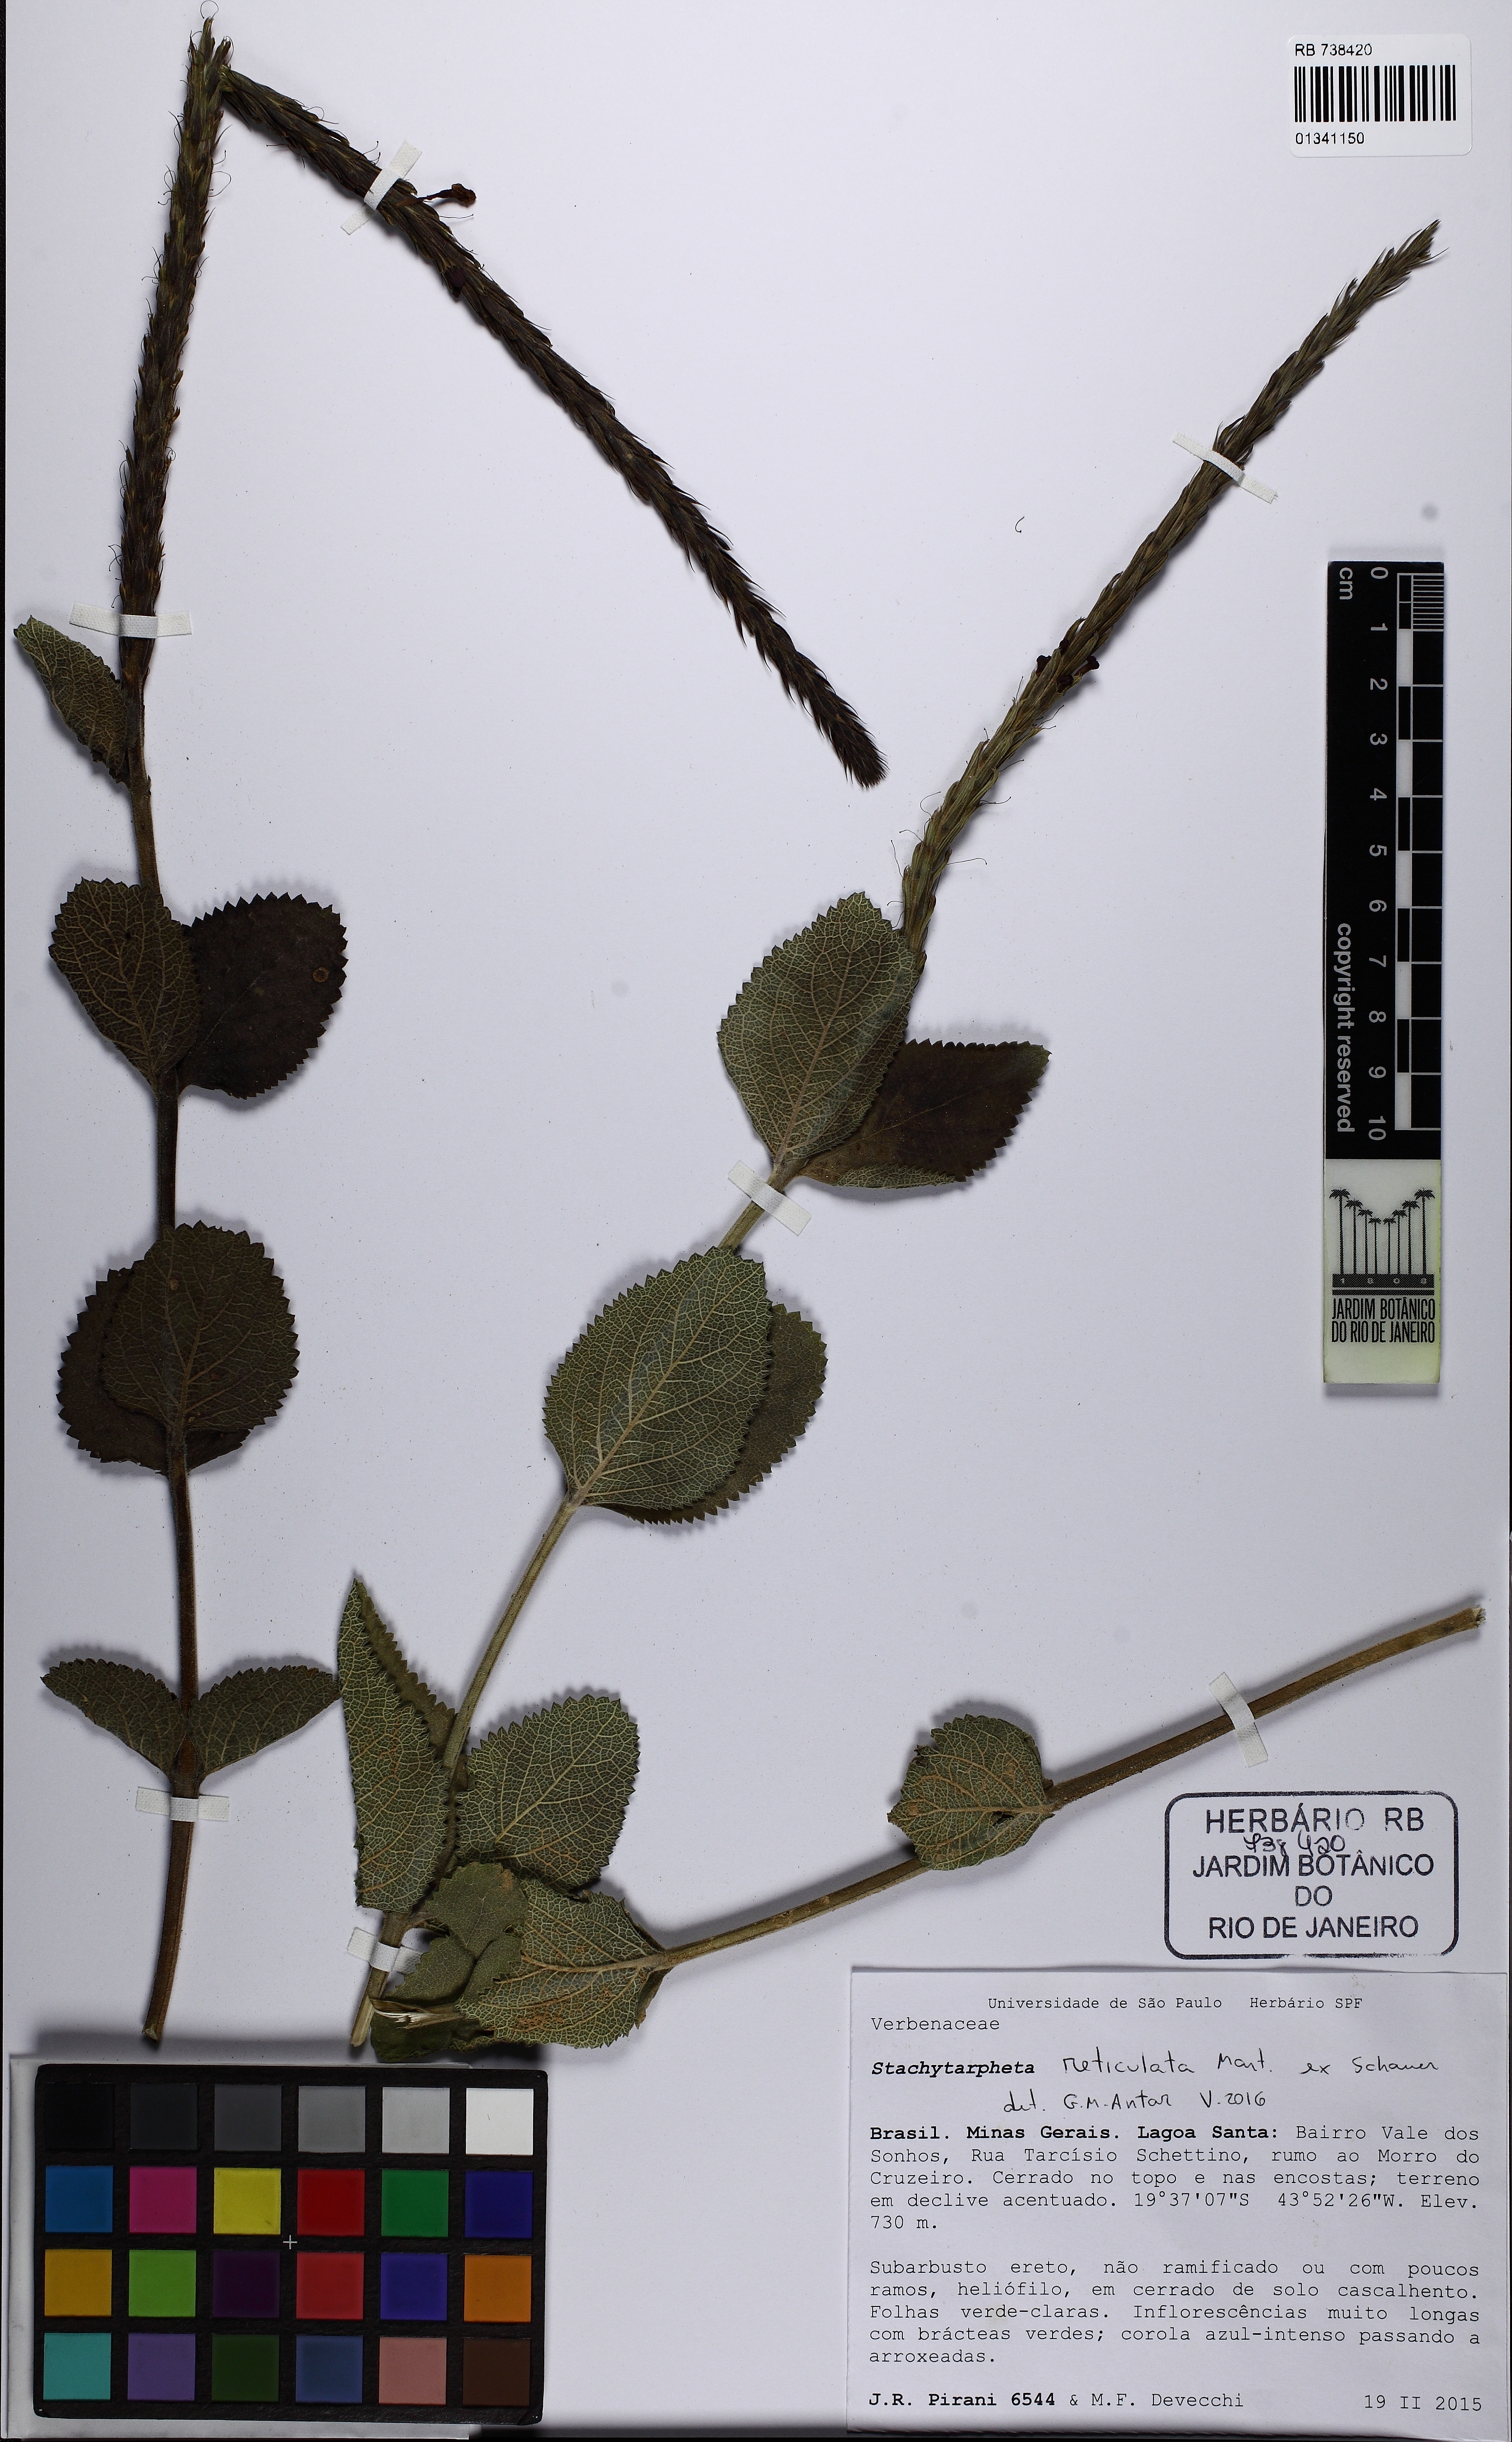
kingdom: Plantae
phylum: Tracheophyta
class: Magnoliopsida
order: Lamiales
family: Verbenaceae
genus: Stachytarpheta
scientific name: Stachytarpheta reticulata
